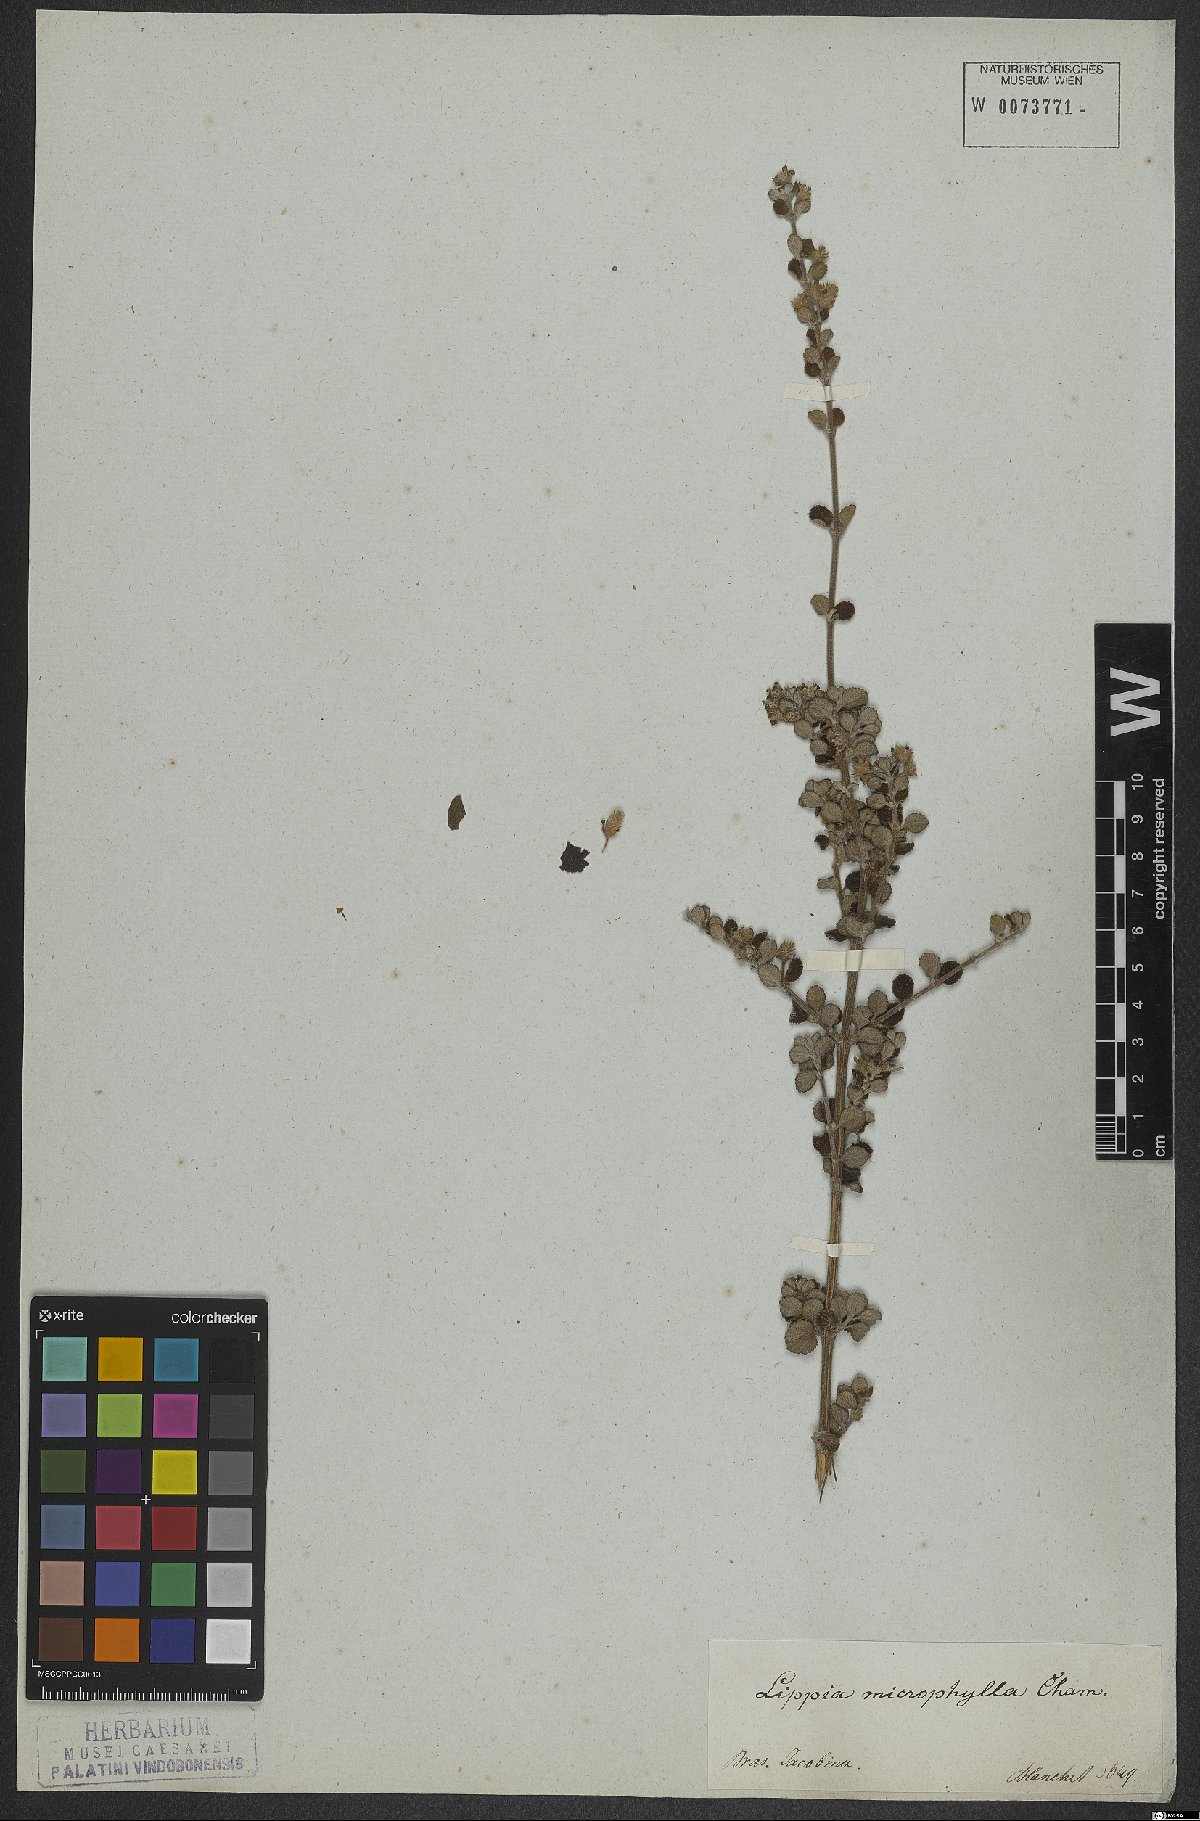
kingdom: Plantae
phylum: Tracheophyta
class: Magnoliopsida
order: Lamiales
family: Verbenaceae
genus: Lippia
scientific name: Lippia origanoides
